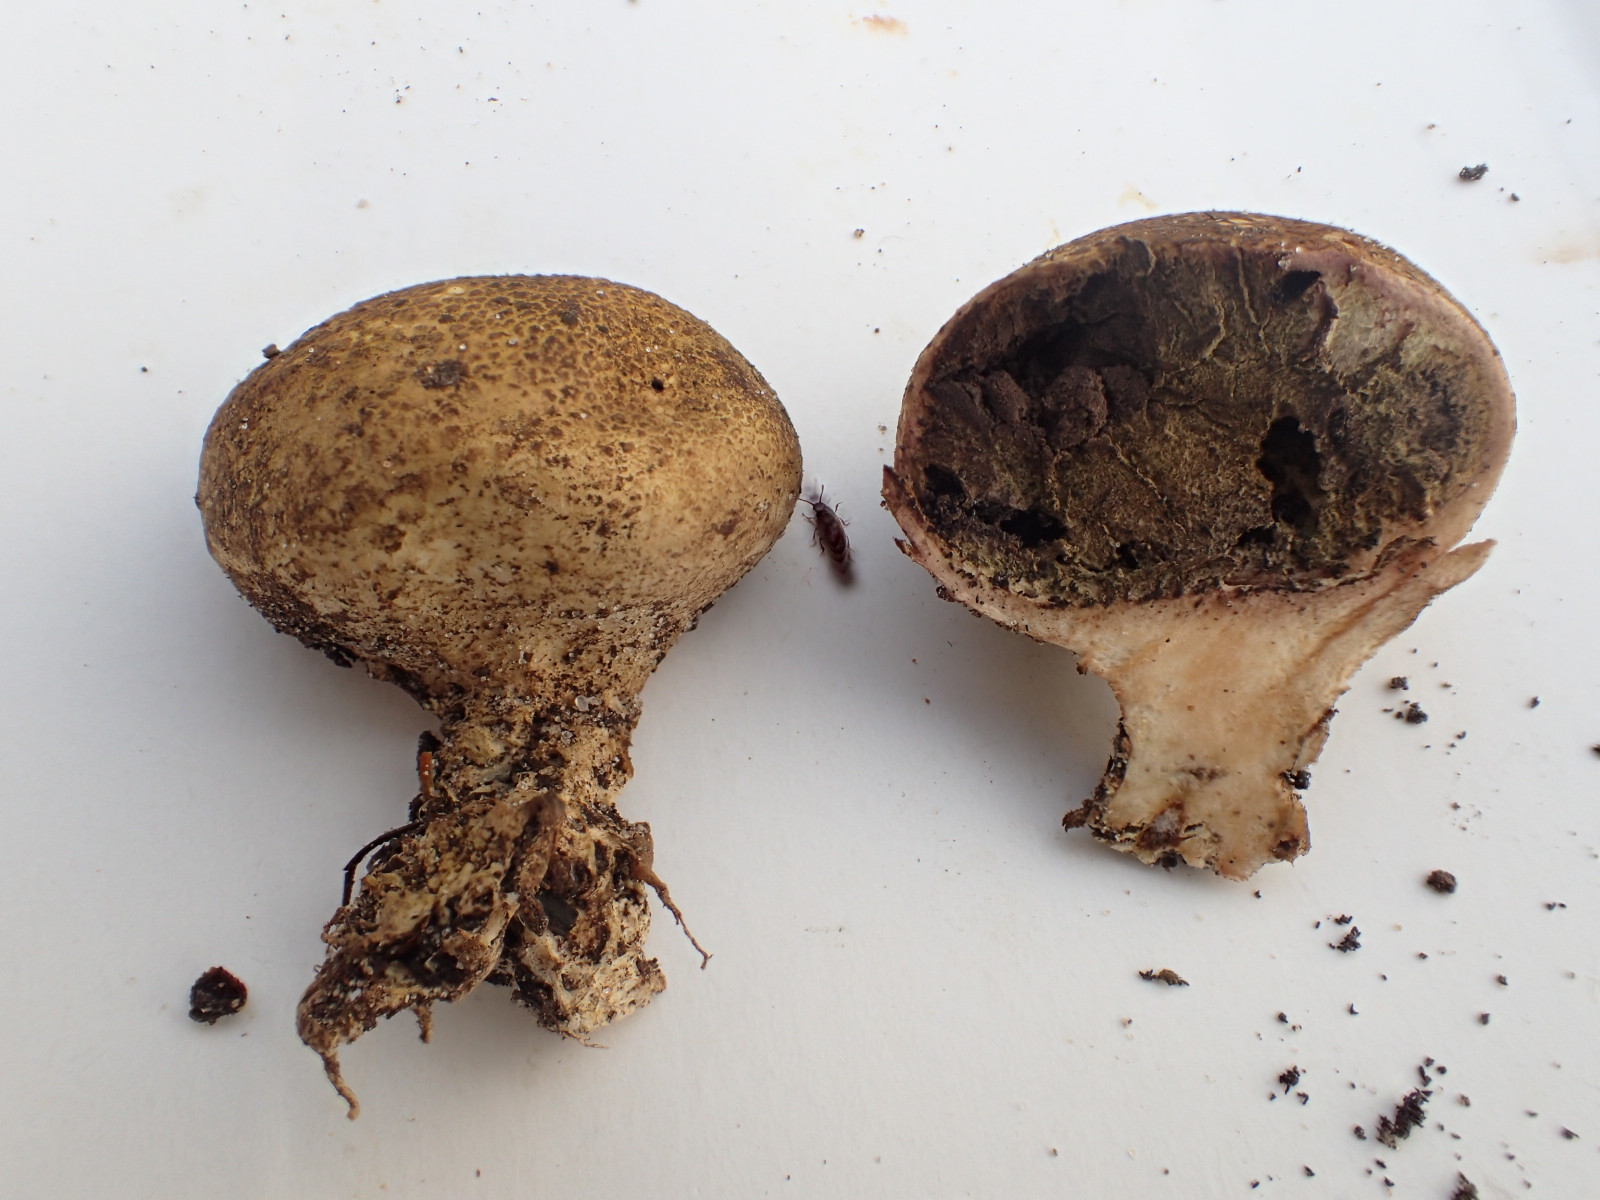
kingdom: Fungi
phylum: Basidiomycota
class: Agaricomycetes
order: Boletales
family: Sclerodermataceae
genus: Scleroderma
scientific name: Scleroderma areolatum
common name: plettet bruskbold
